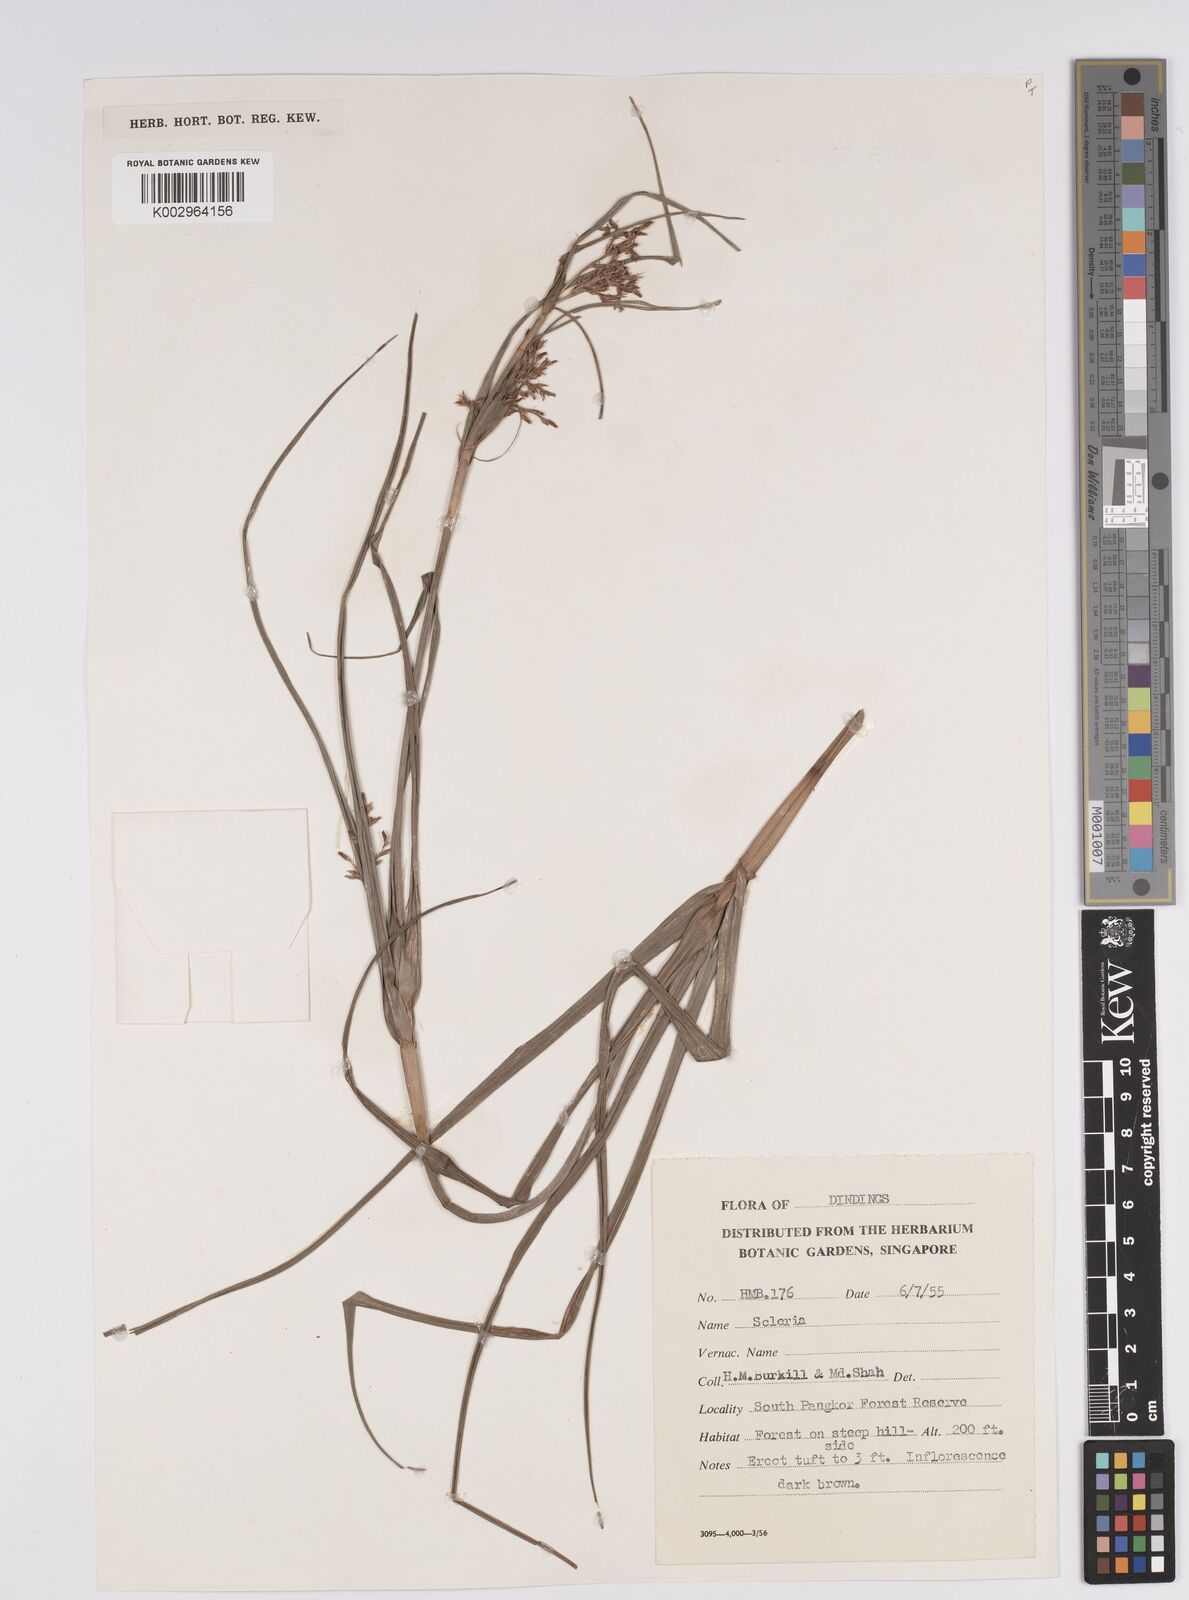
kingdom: Plantae
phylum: Tracheophyta
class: Liliopsida
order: Poales
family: Cyperaceae
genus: Scleria
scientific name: Scleria
